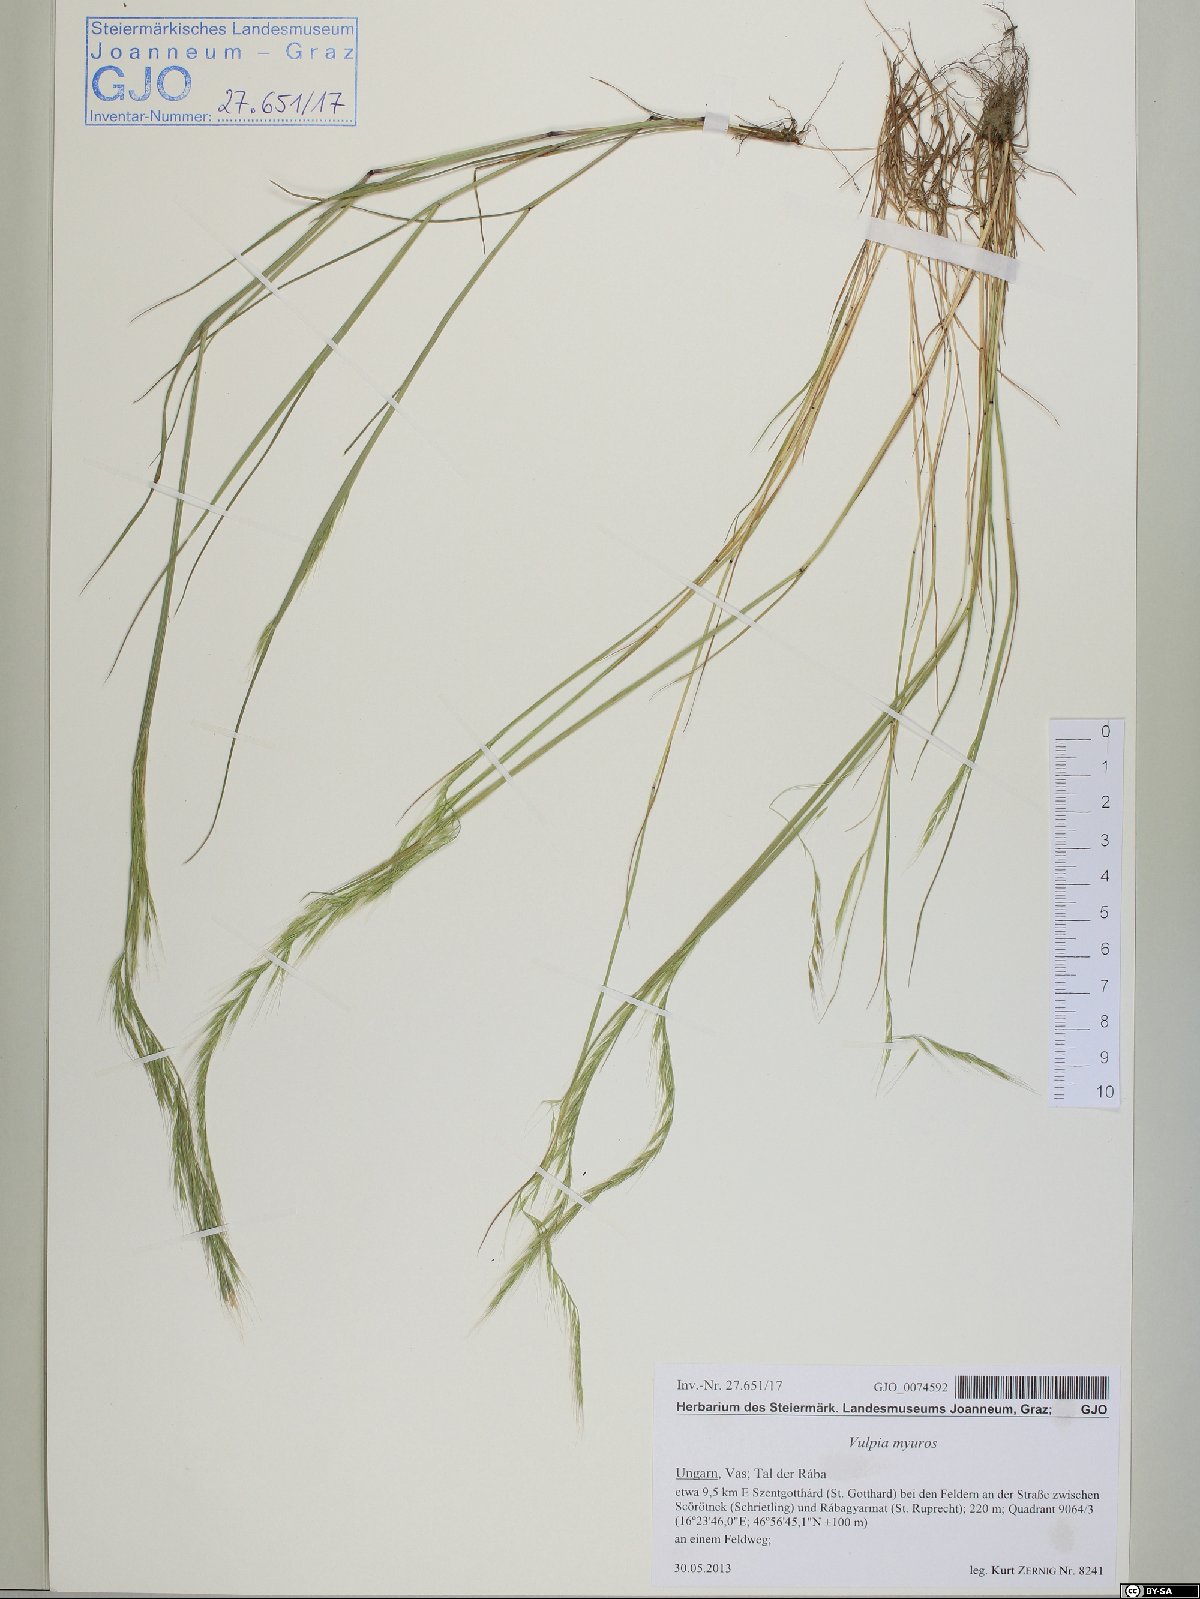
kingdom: Plantae
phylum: Tracheophyta
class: Liliopsida
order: Poales
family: Poaceae
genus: Festuca
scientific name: Festuca myuros
